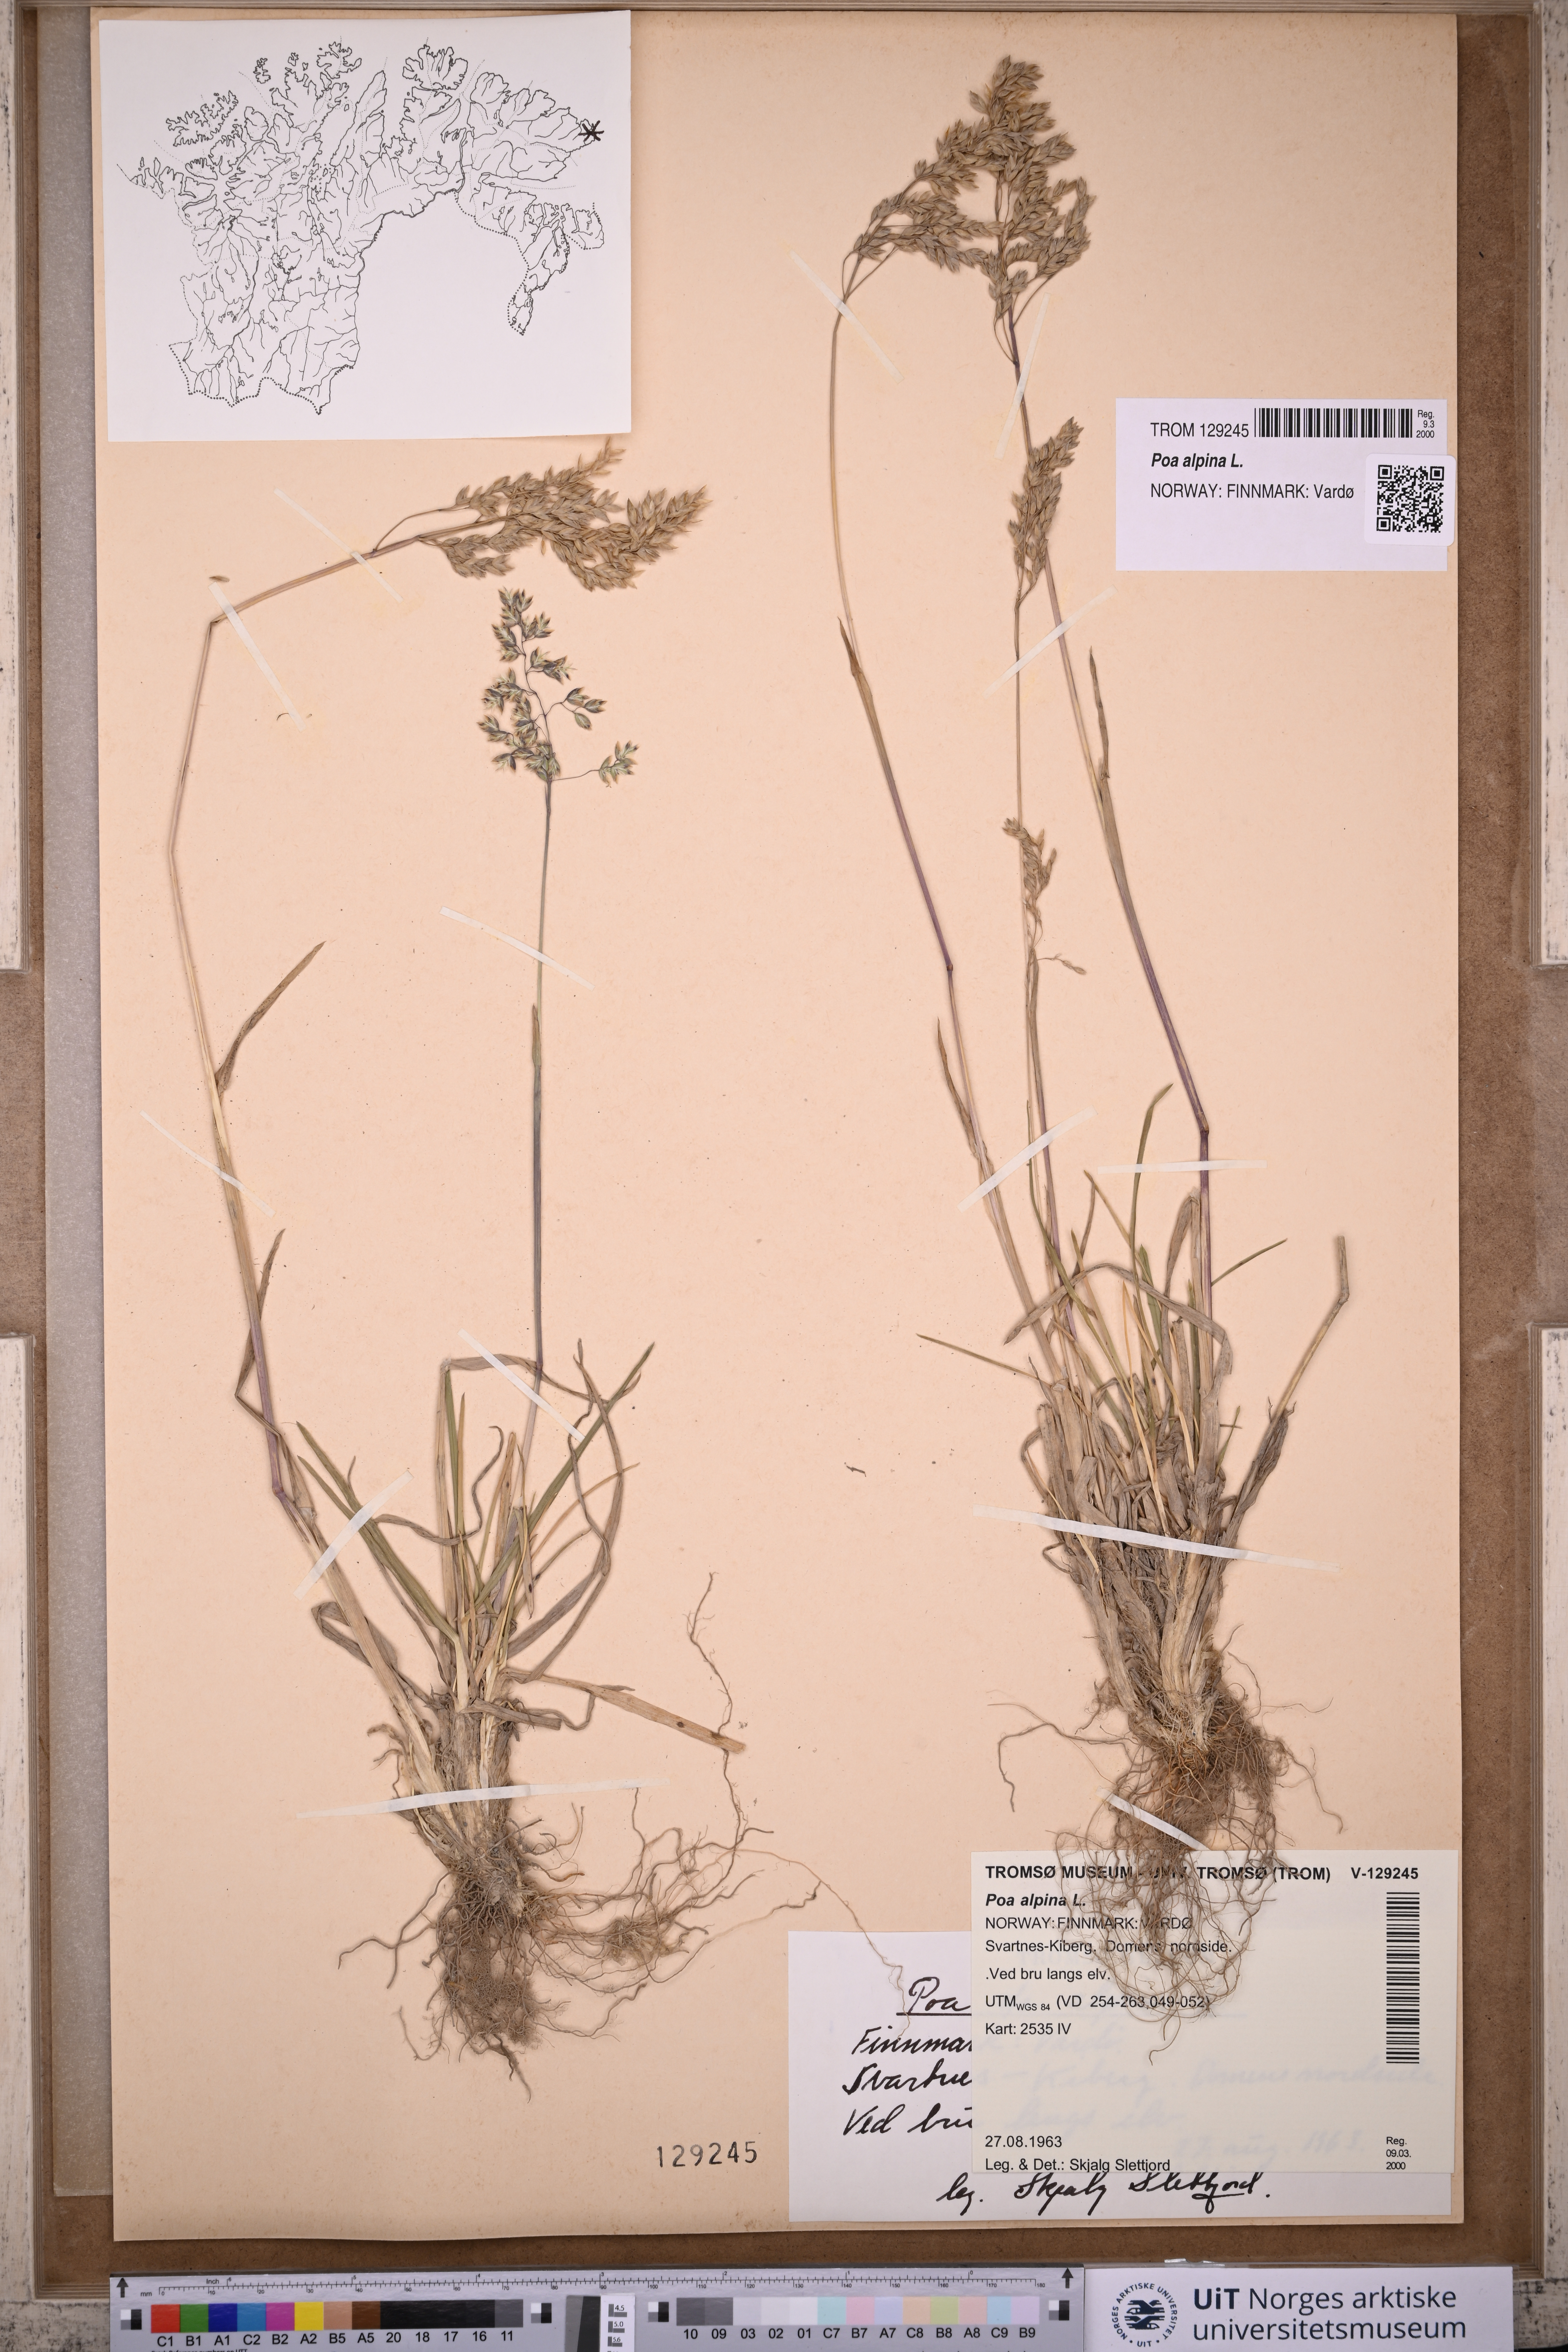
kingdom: Plantae
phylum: Tracheophyta
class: Liliopsida
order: Poales
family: Poaceae
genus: Poa
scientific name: Poa alpina
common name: Alpine bluegrass
